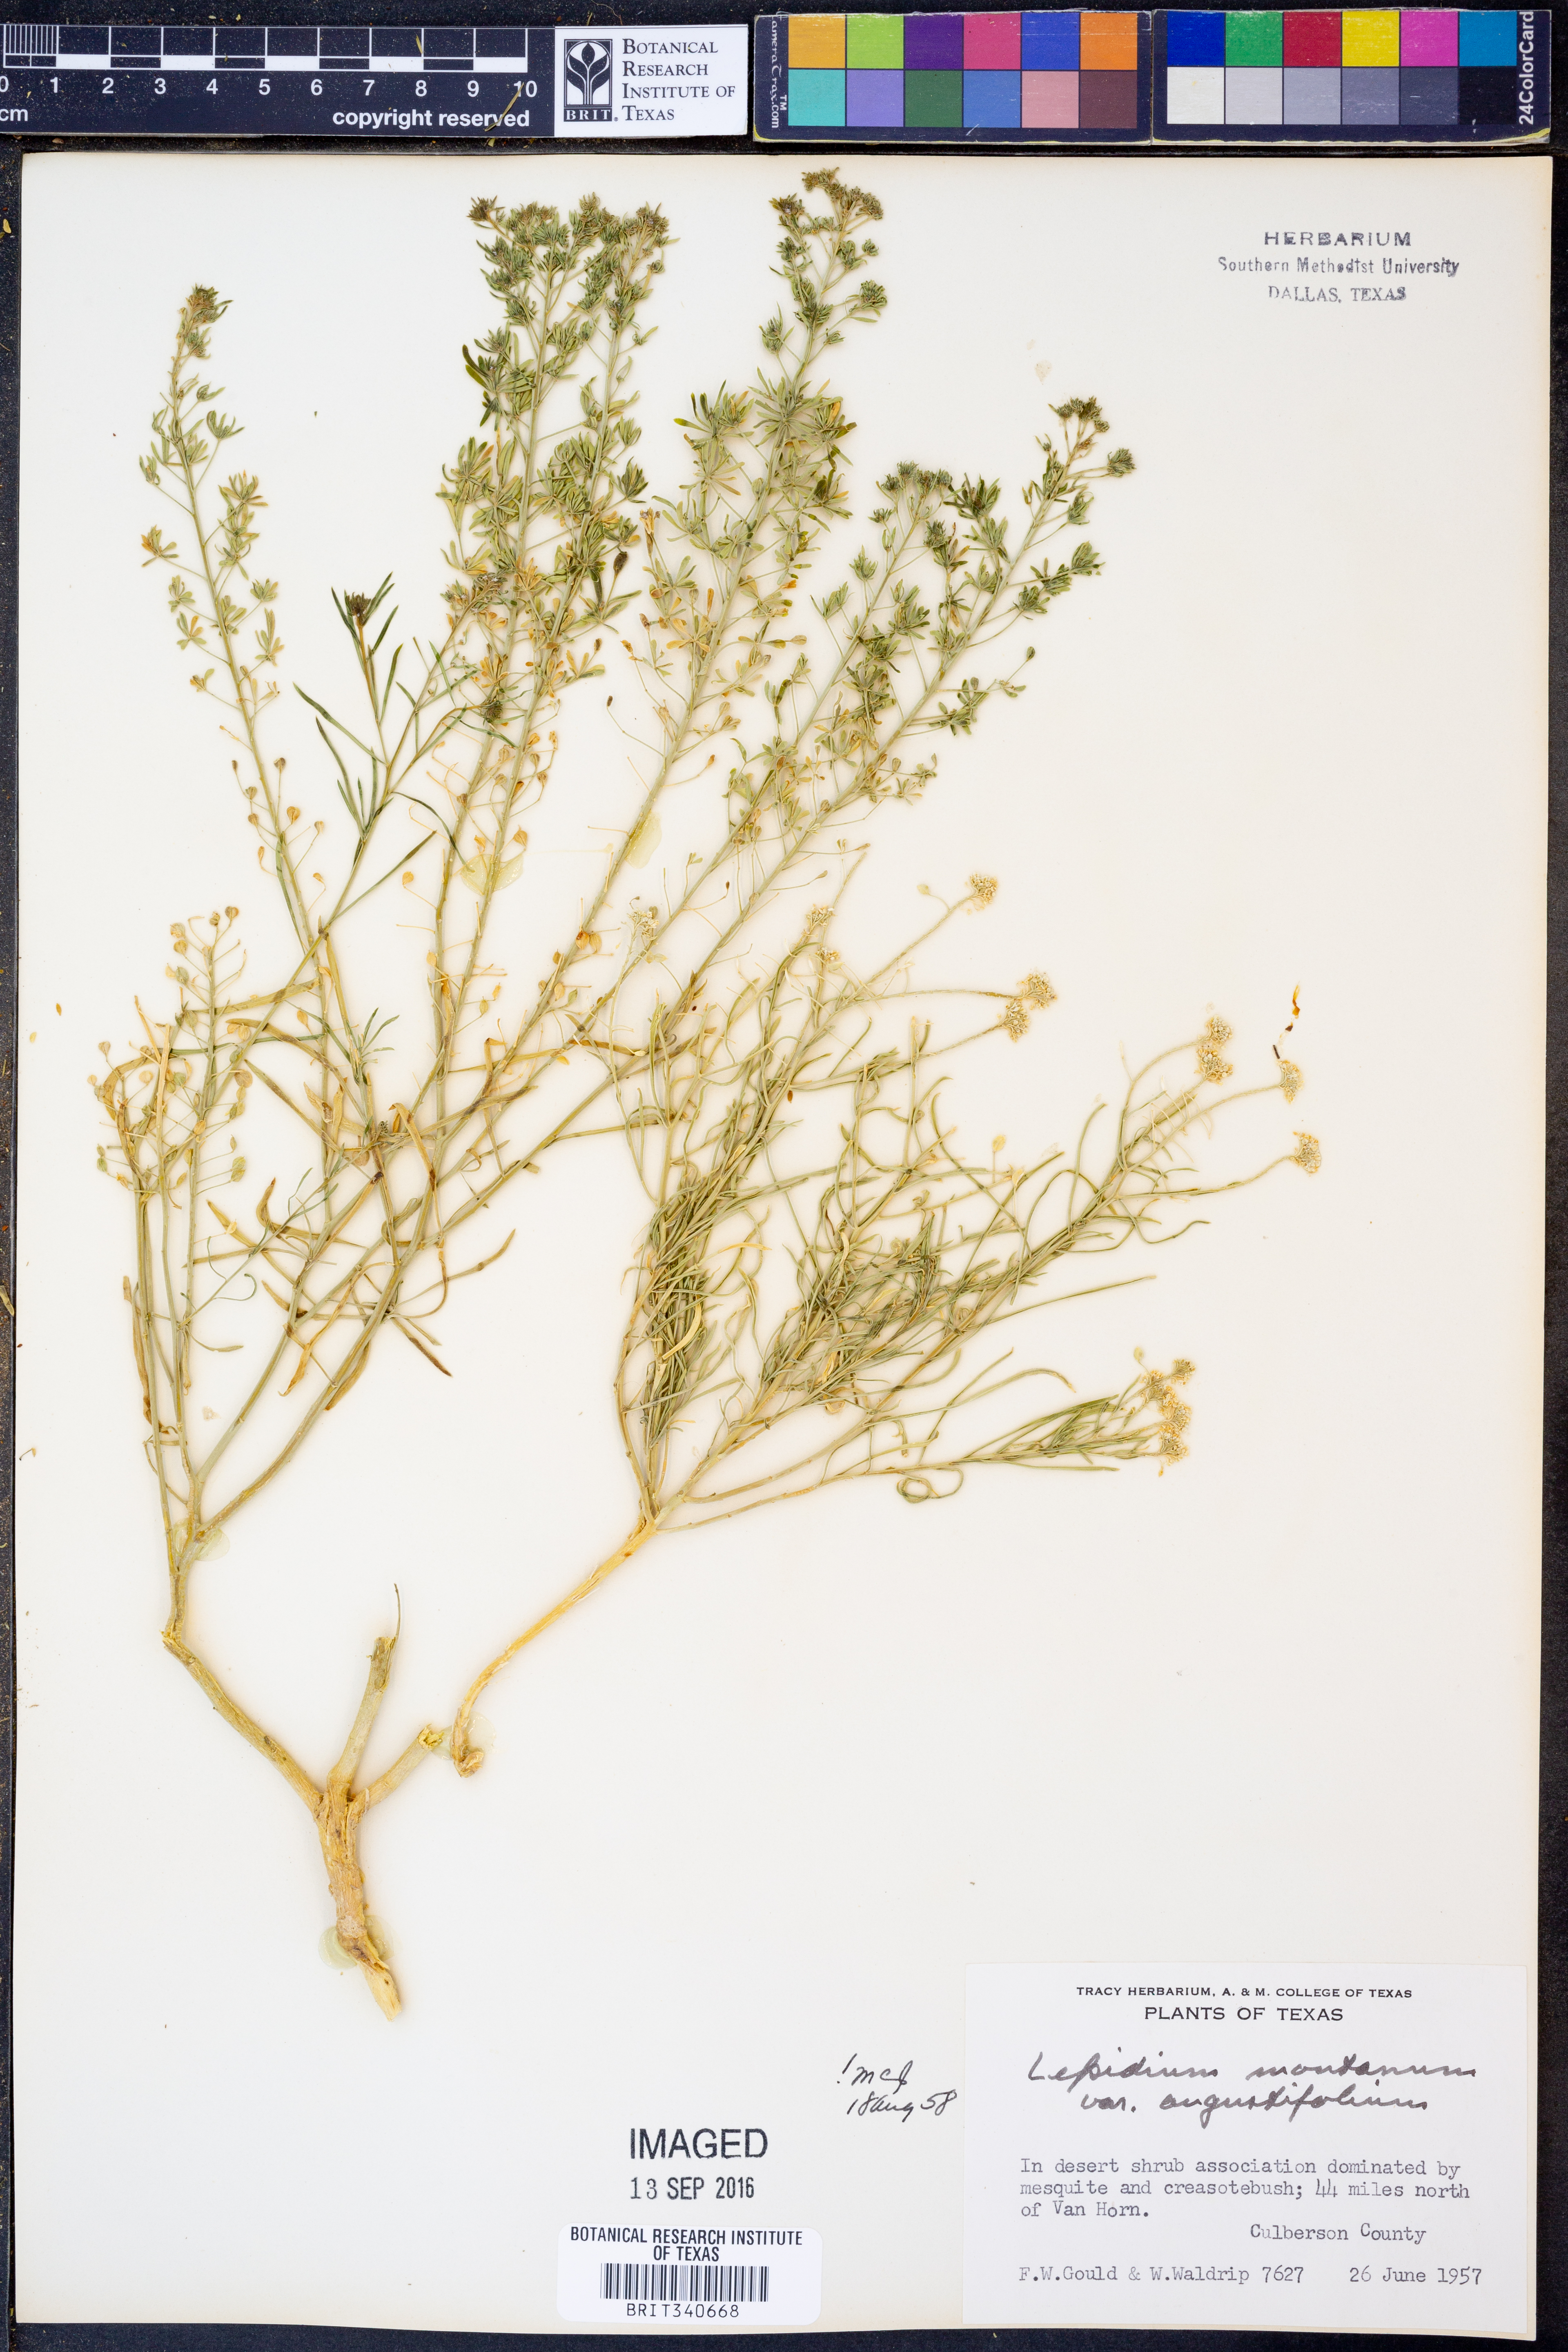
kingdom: Plantae
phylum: Tracheophyta
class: Magnoliopsida
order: Brassicales
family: Brassicaceae
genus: Lepidium
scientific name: Lepidium alyssoides
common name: Mesa pepperweed
